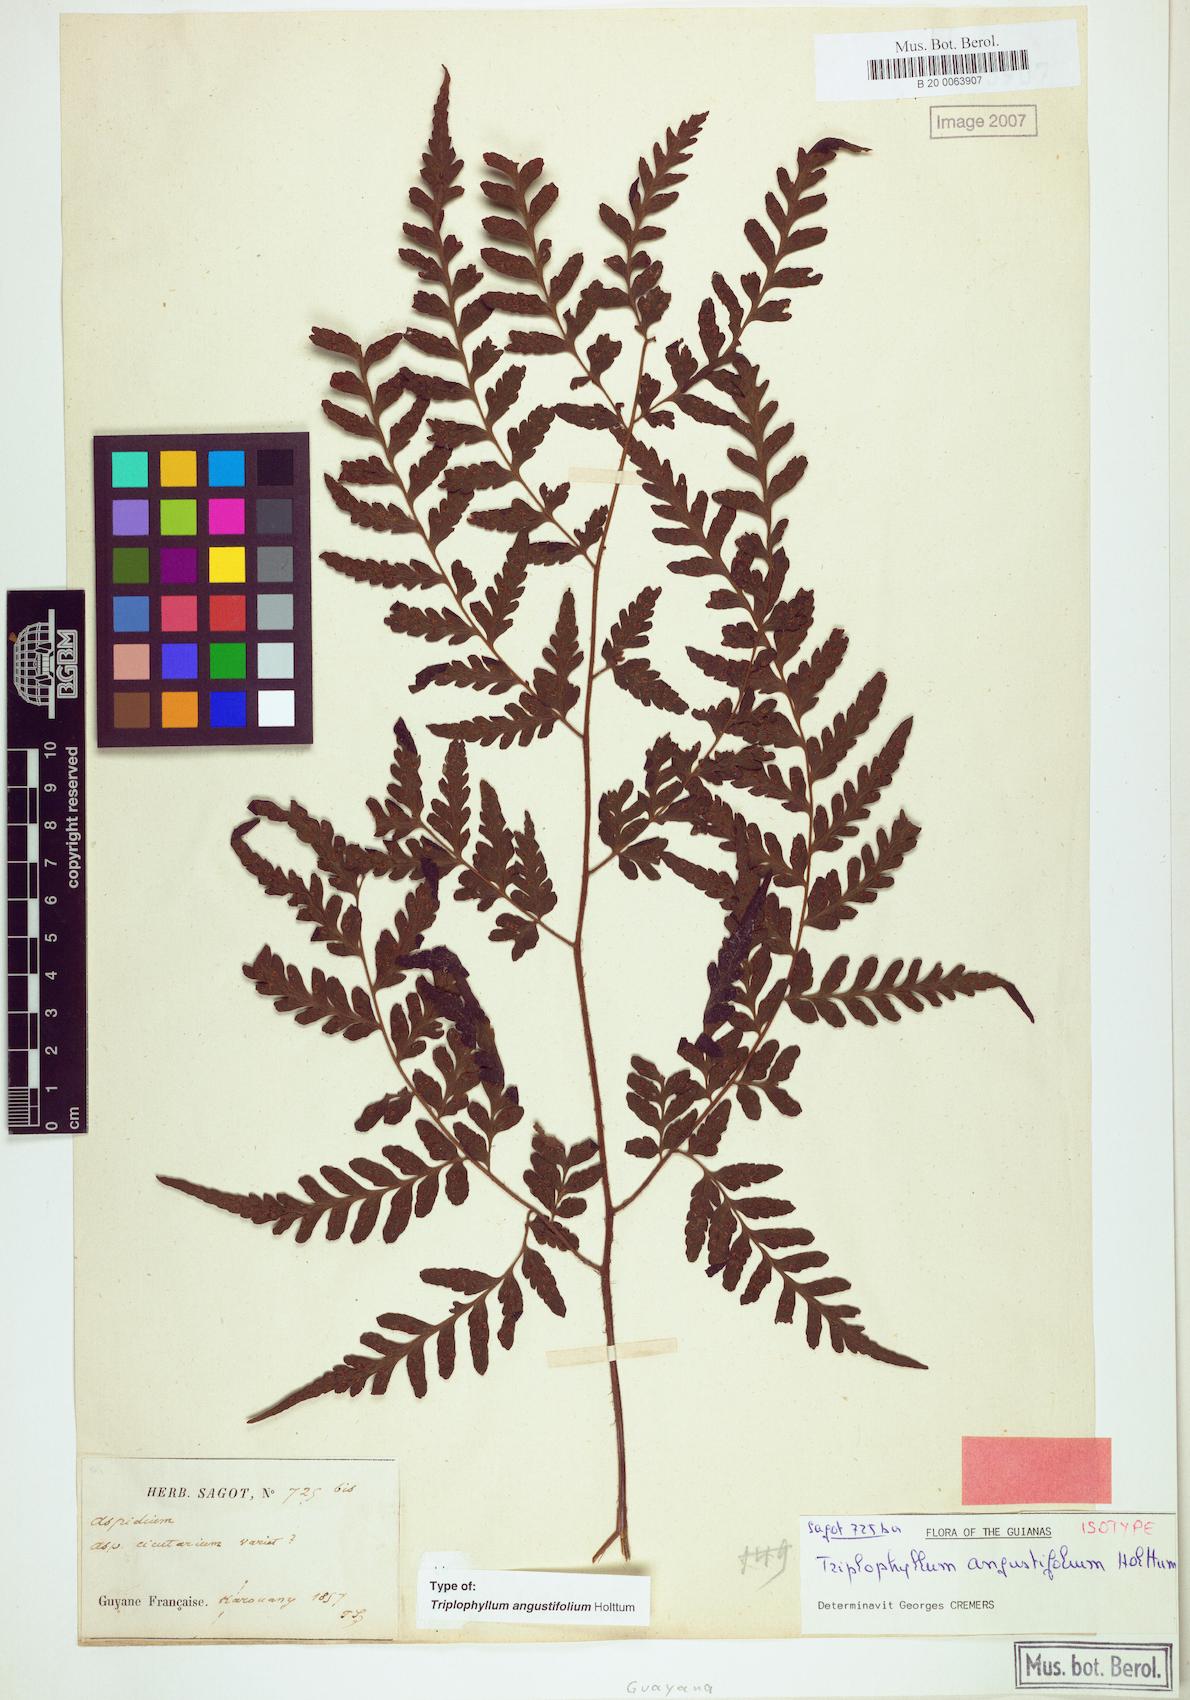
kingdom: Plantae
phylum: Tracheophyta
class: Polypodiopsida
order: Polypodiales
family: Tectariaceae
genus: Triplophyllum
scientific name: Triplophyllum angustifolium
